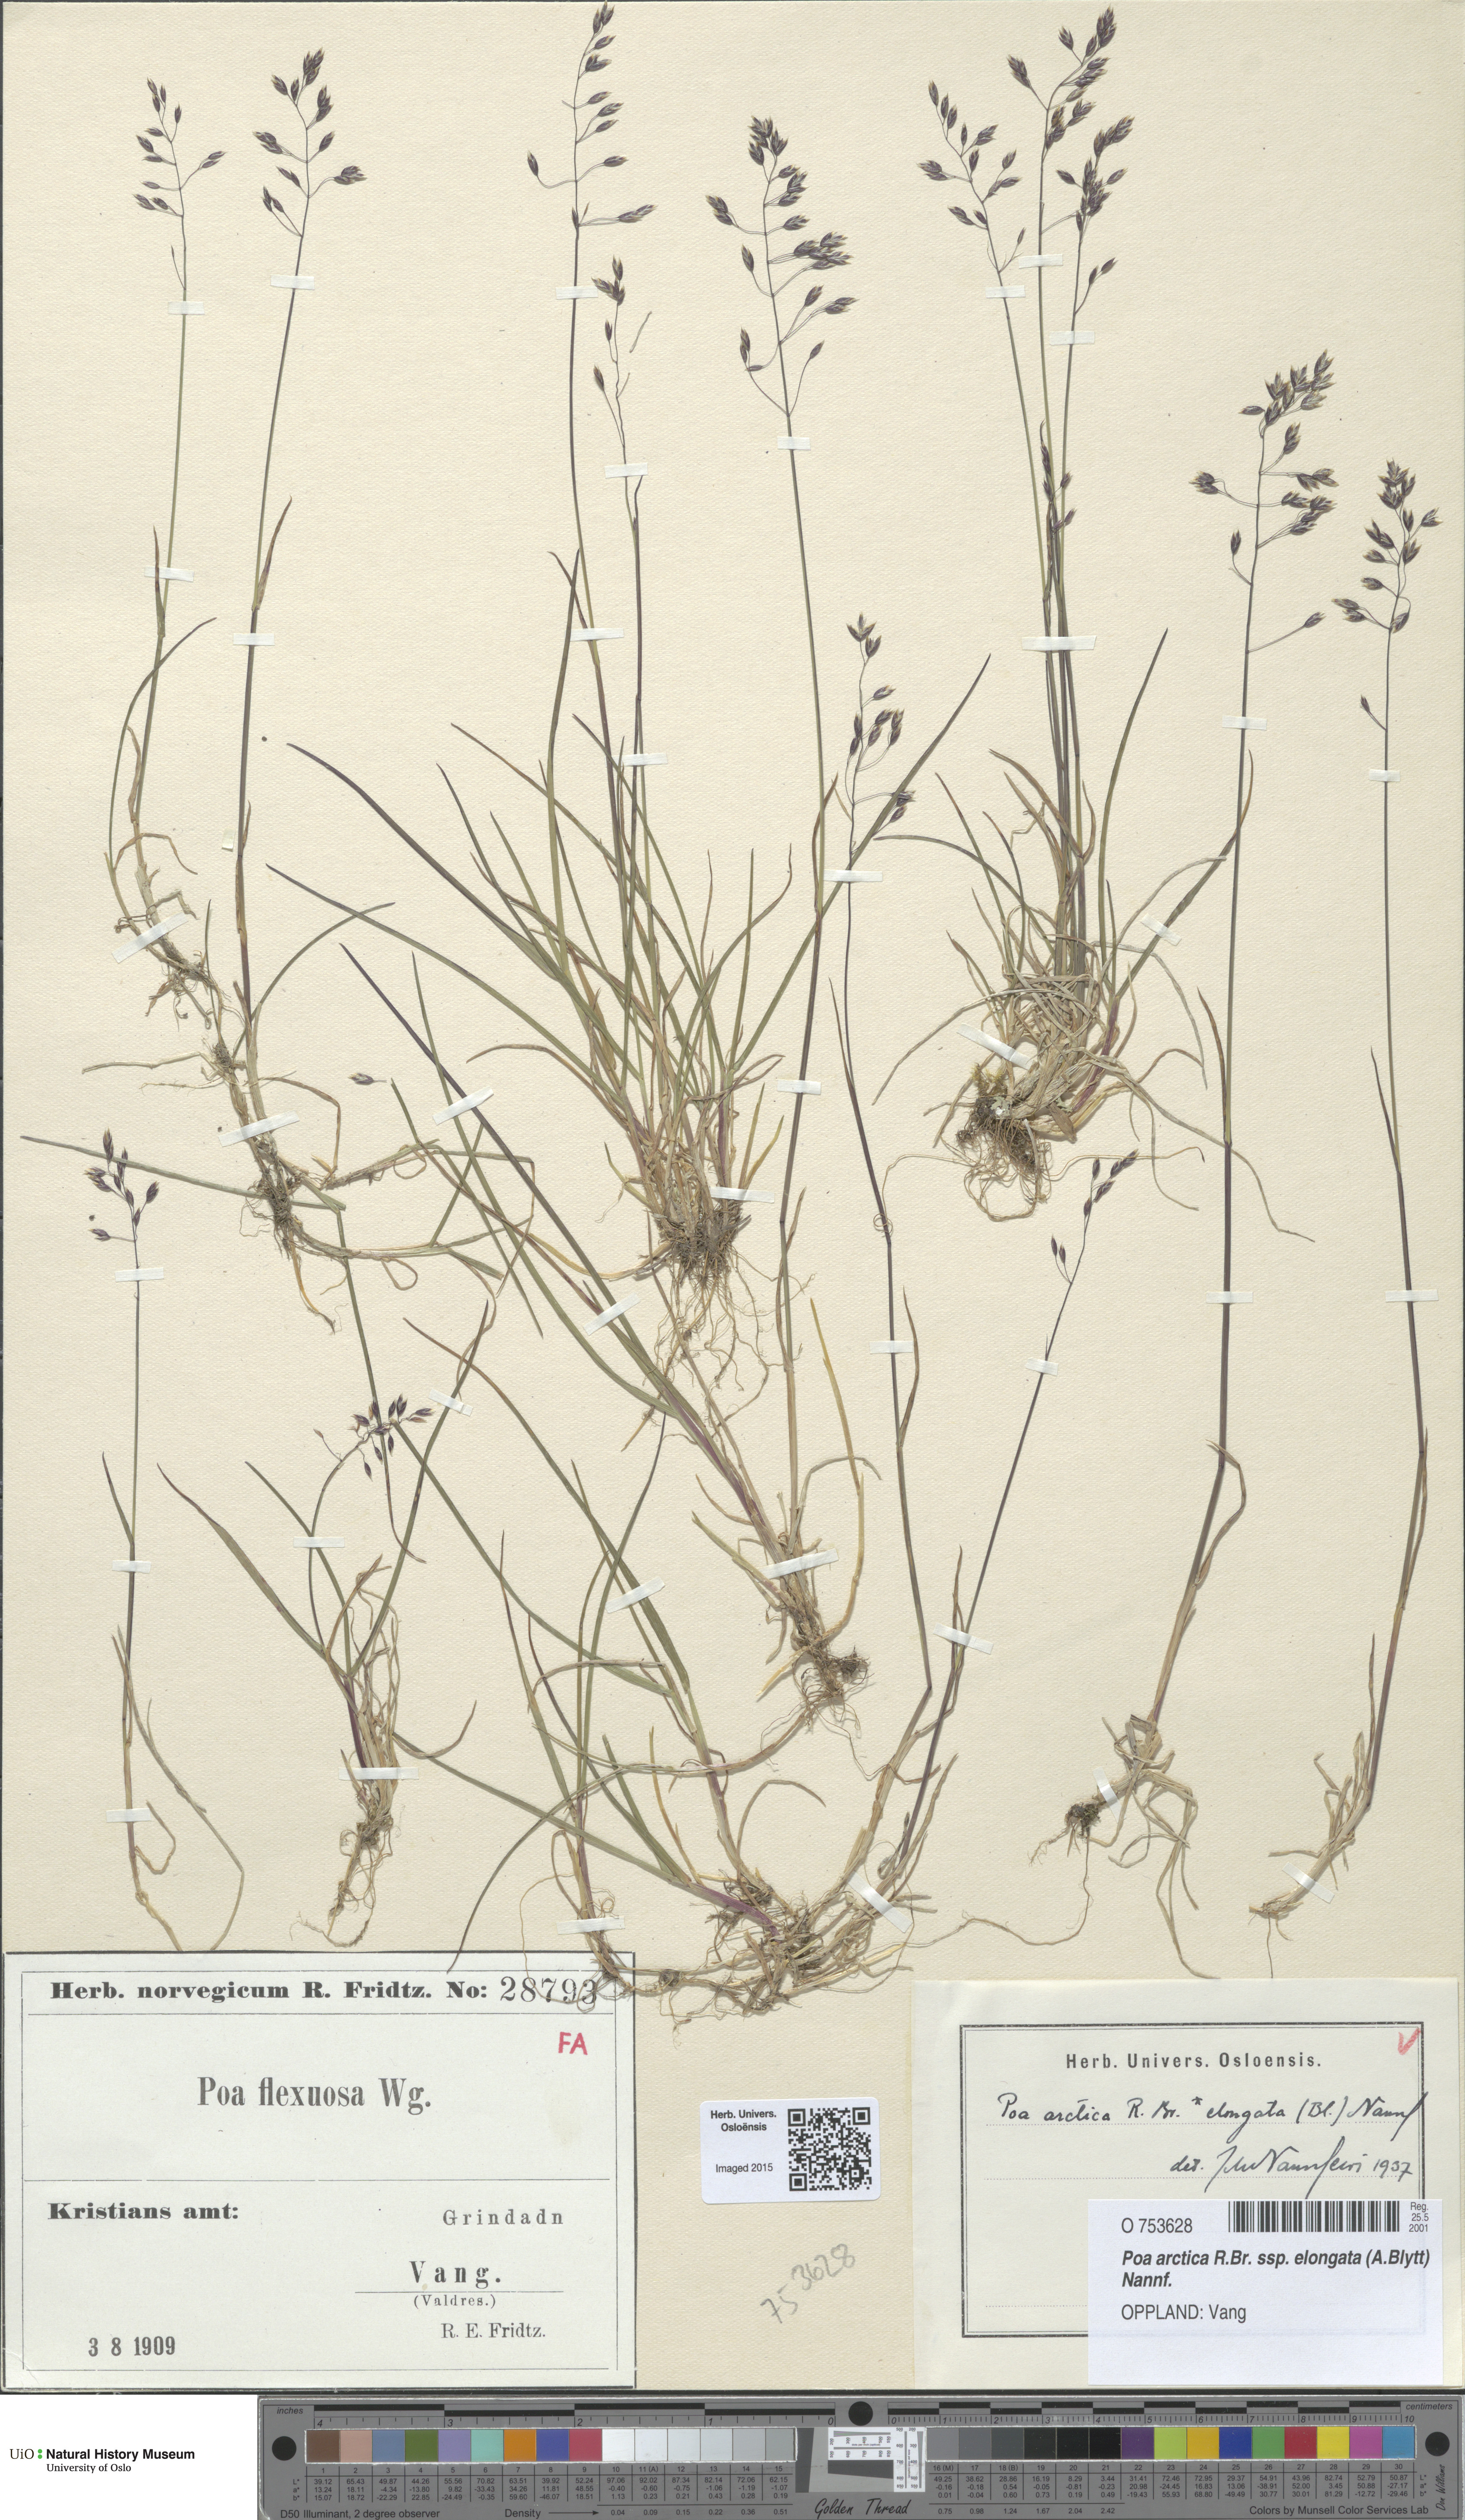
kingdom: Plantae
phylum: Tracheophyta
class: Liliopsida
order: Poales
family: Poaceae
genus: Poa
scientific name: Poa arctica
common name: Arctic bluegrass
